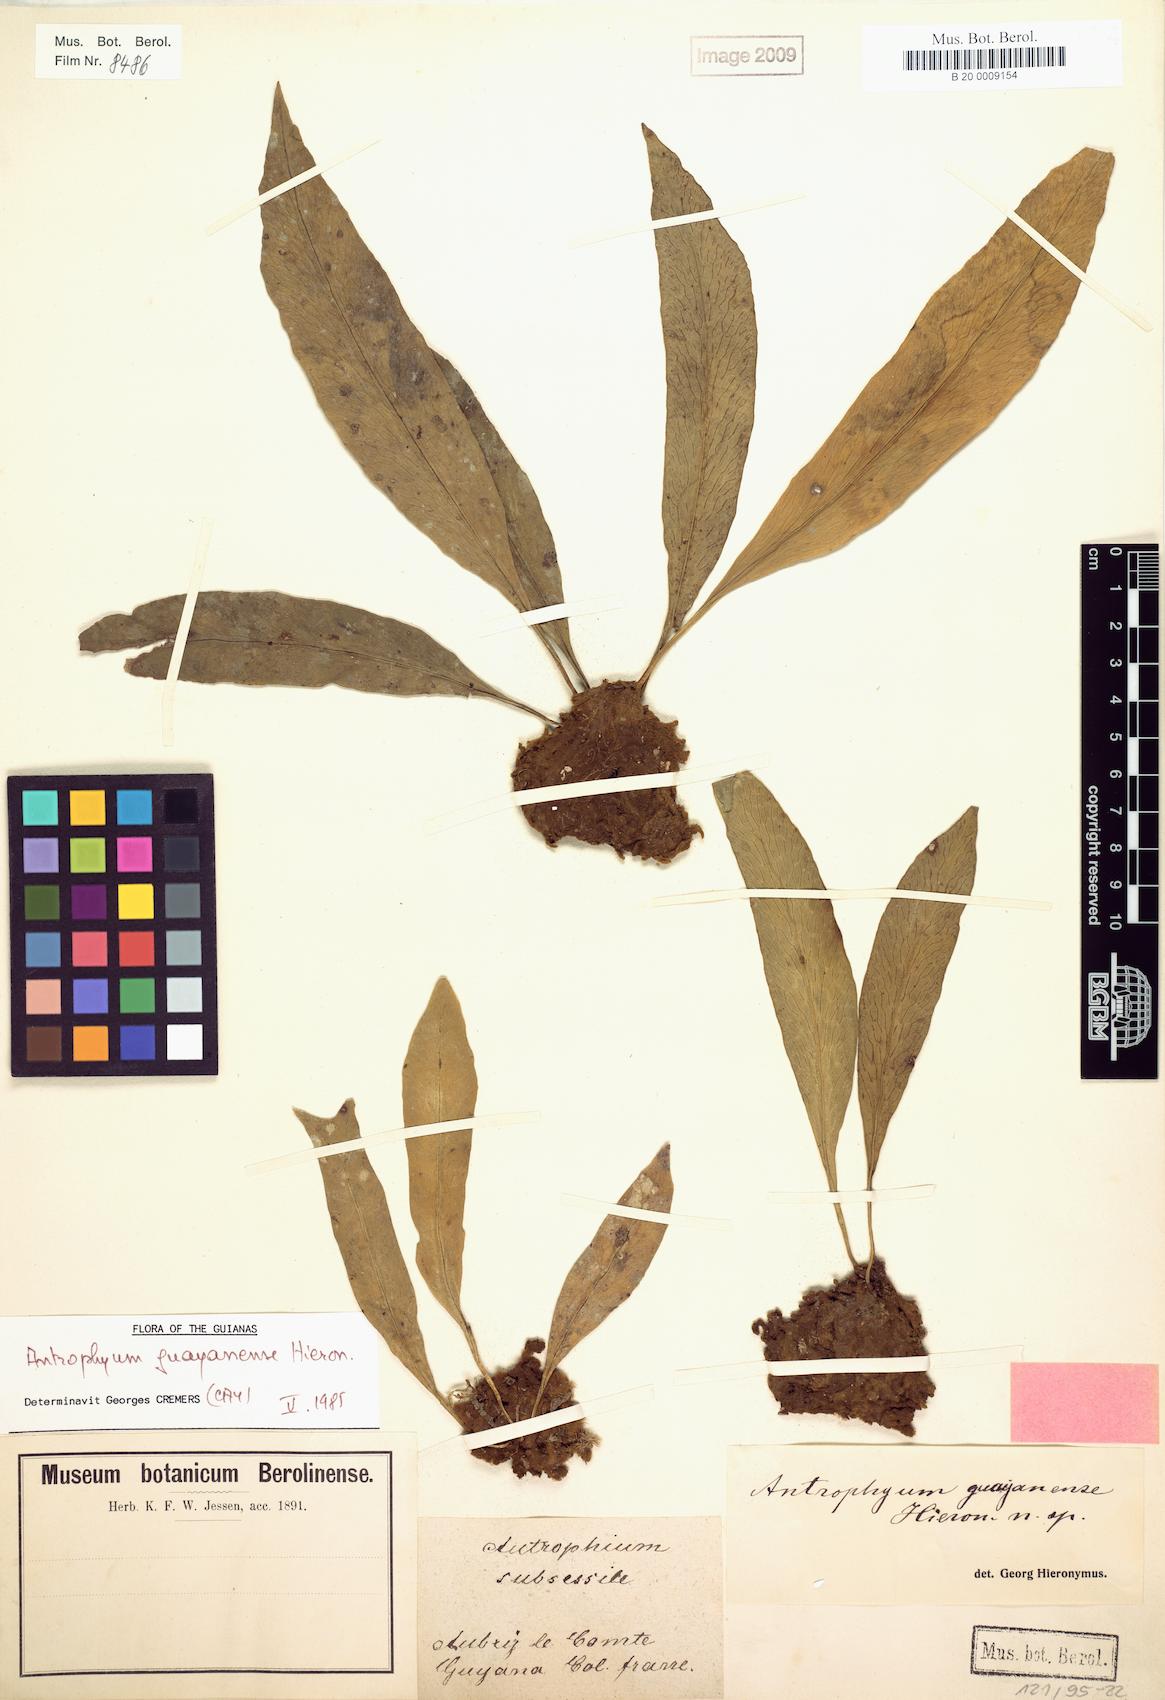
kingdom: Plantae
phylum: Tracheophyta
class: Polypodiopsida
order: Polypodiales
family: Pteridaceae
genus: Polytaenium
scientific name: Polytaenium guayanense
